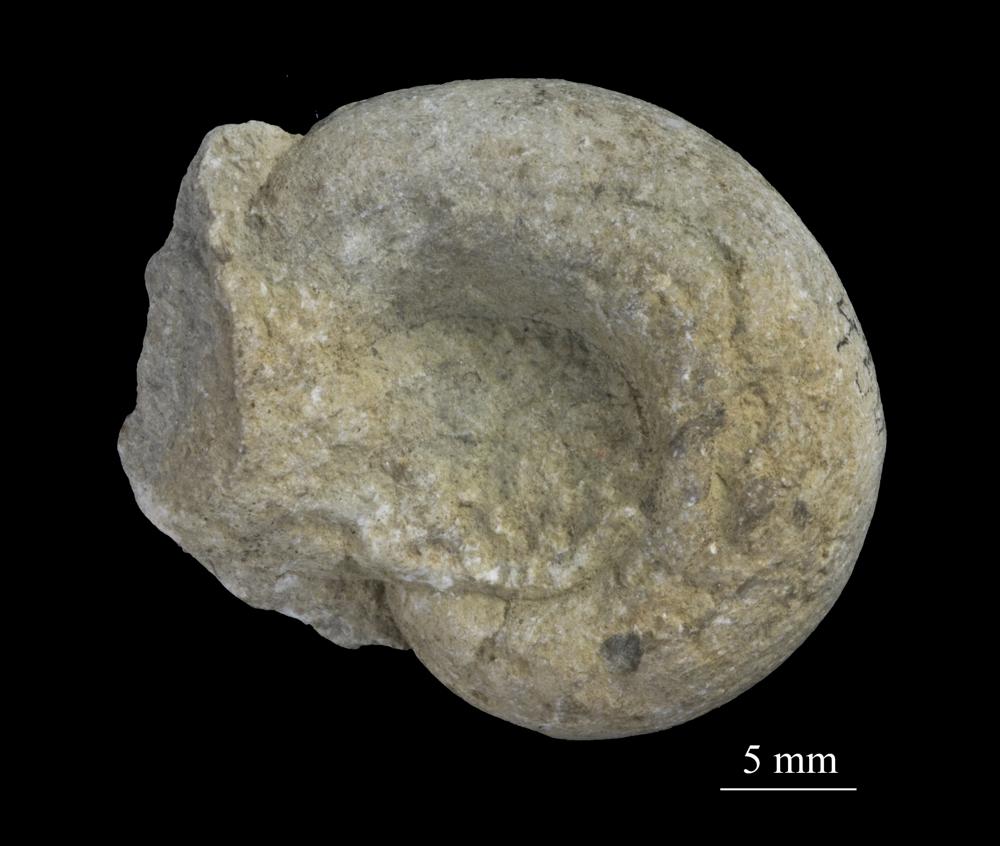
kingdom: Animalia
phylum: Mollusca
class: Gastropoda
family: Lesueurillidae
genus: Pararaphistoma
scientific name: Pararaphistoma Raphistoma scalare
